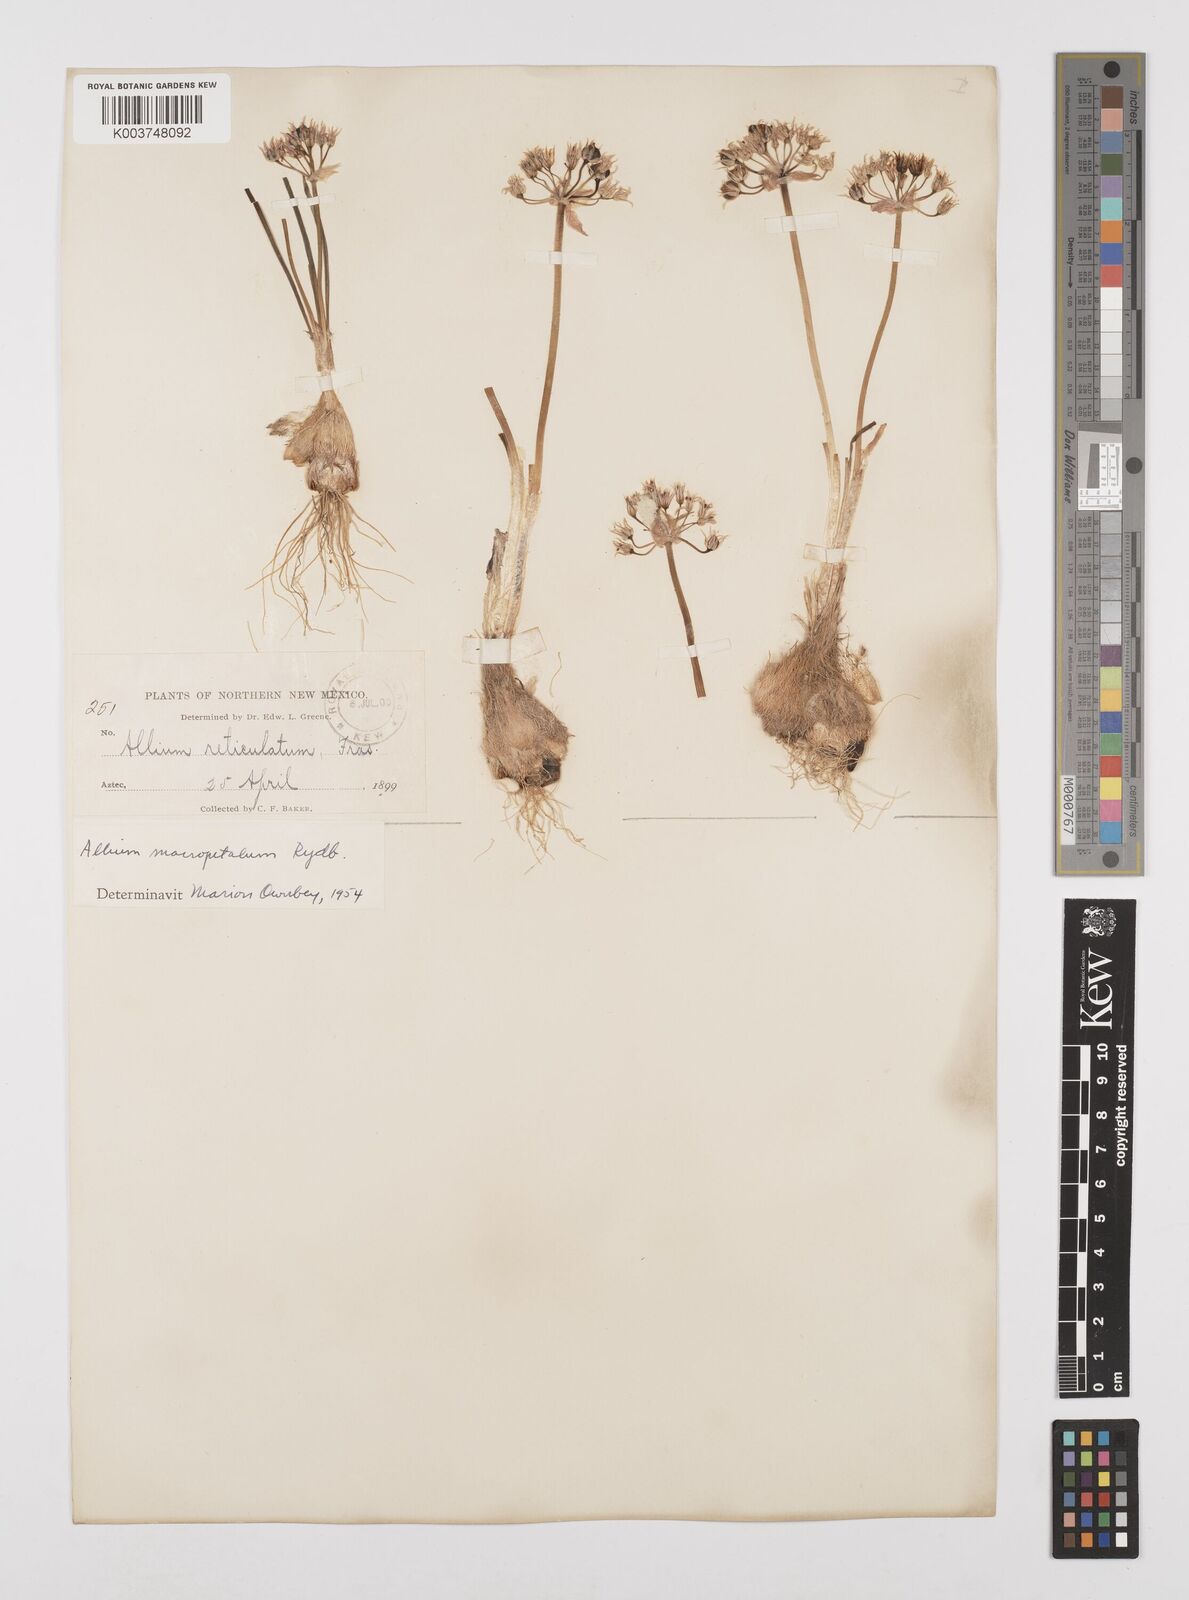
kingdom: Plantae
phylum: Tracheophyta
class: Liliopsida
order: Asparagales
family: Amaryllidaceae
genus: Allium
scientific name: Allium macropetalum
